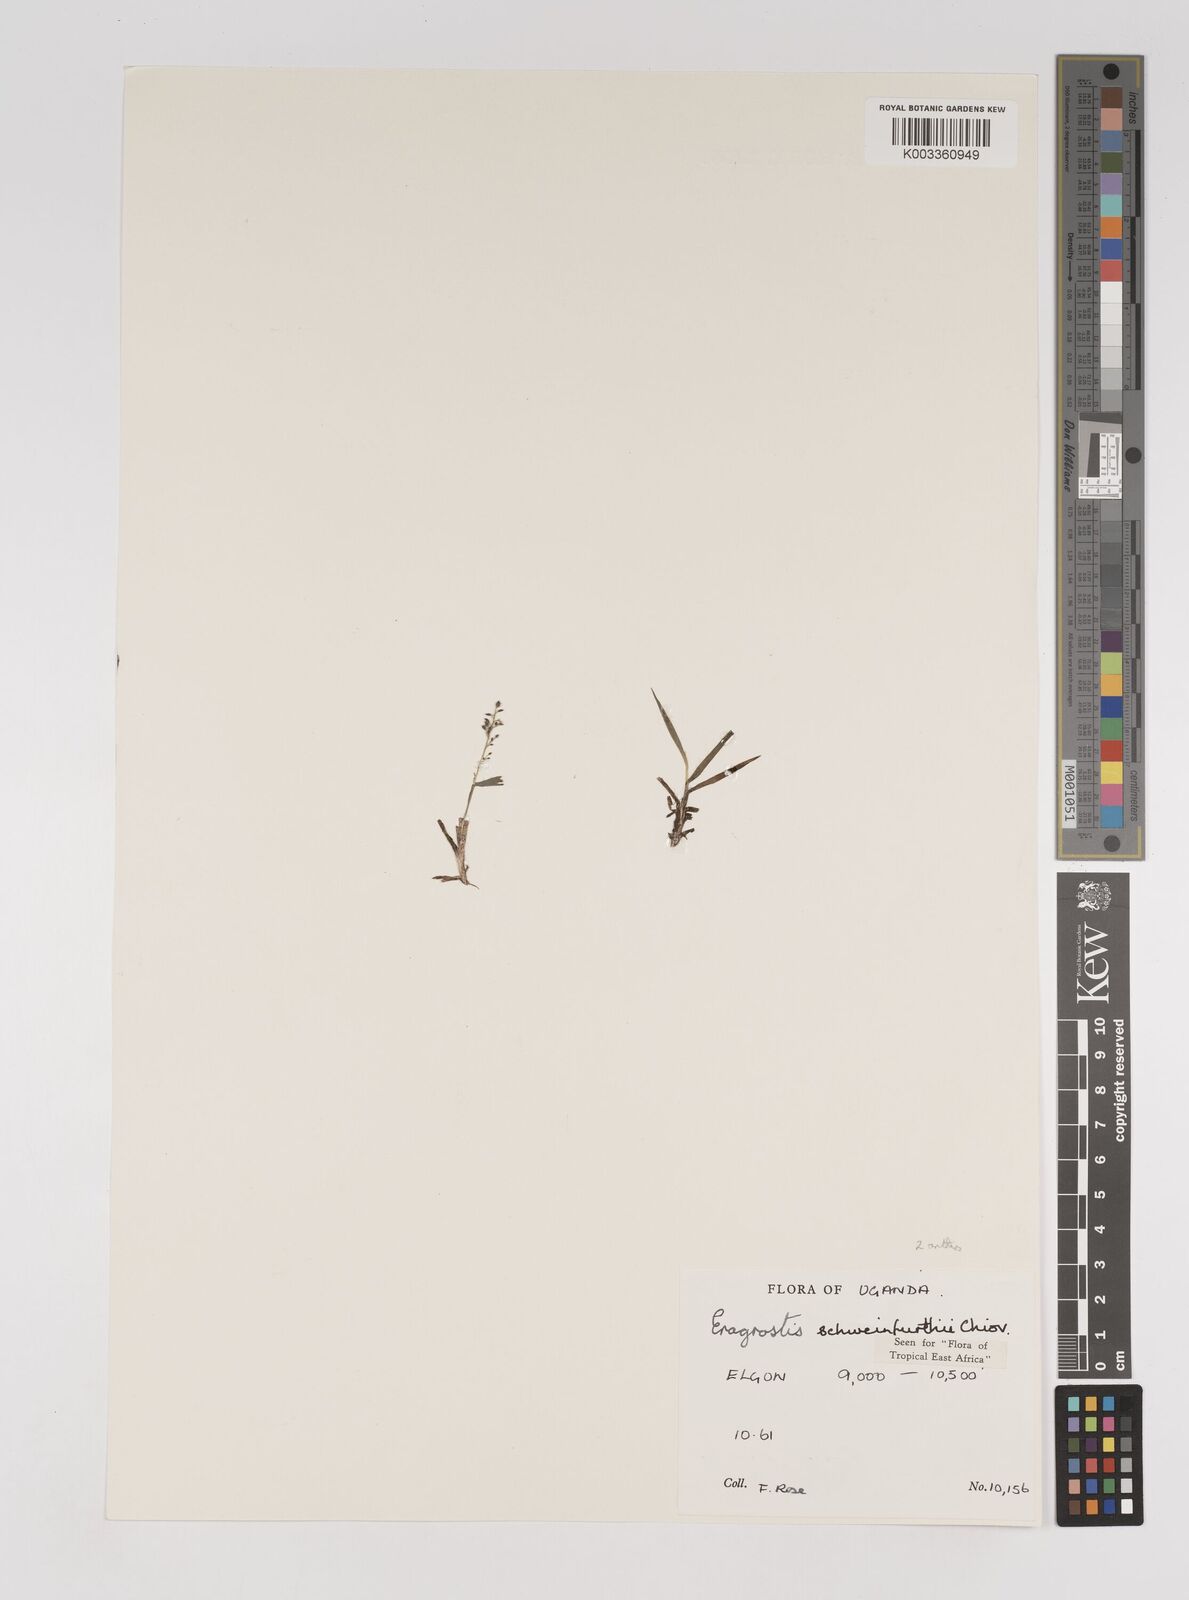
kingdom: Plantae
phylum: Tracheophyta
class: Liliopsida
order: Poales
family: Poaceae
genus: Eragrostis
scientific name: Eragrostis schweinfurthii
